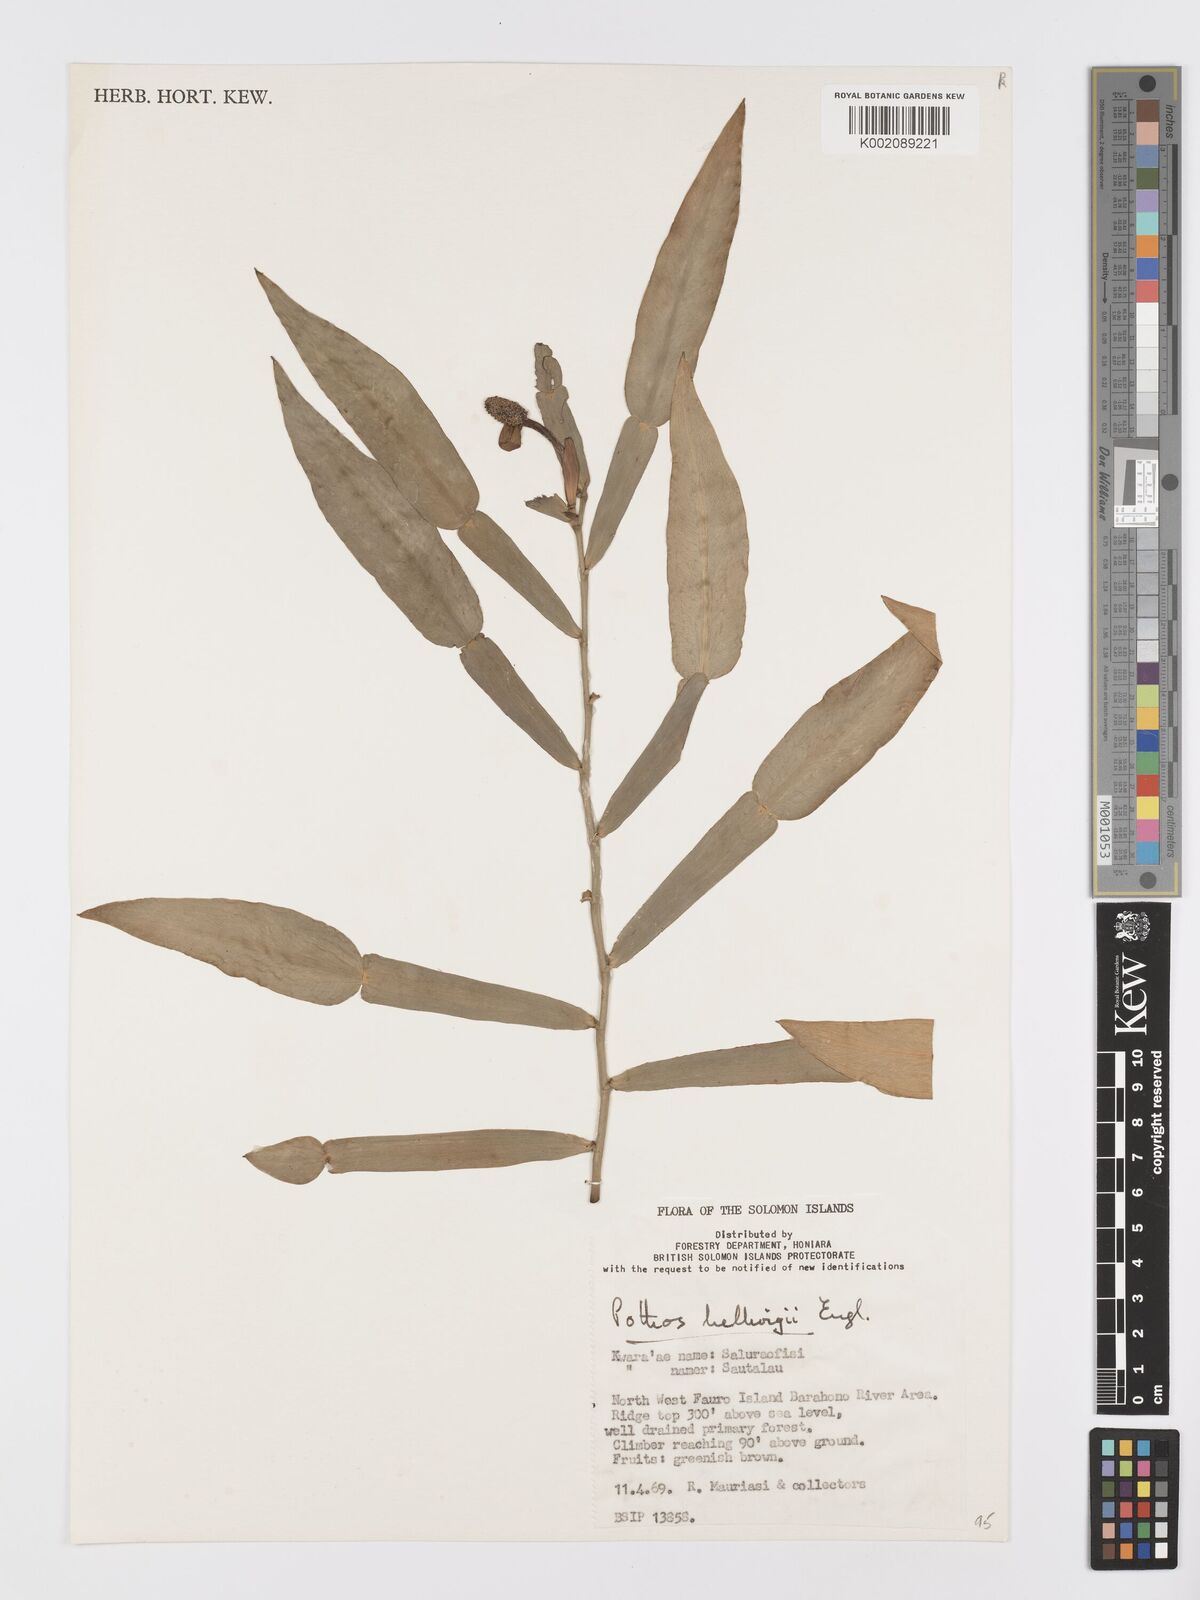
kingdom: Plantae
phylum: Tracheophyta
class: Liliopsida
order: Alismatales
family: Araceae
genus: Pothos
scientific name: Pothos hellwigii
